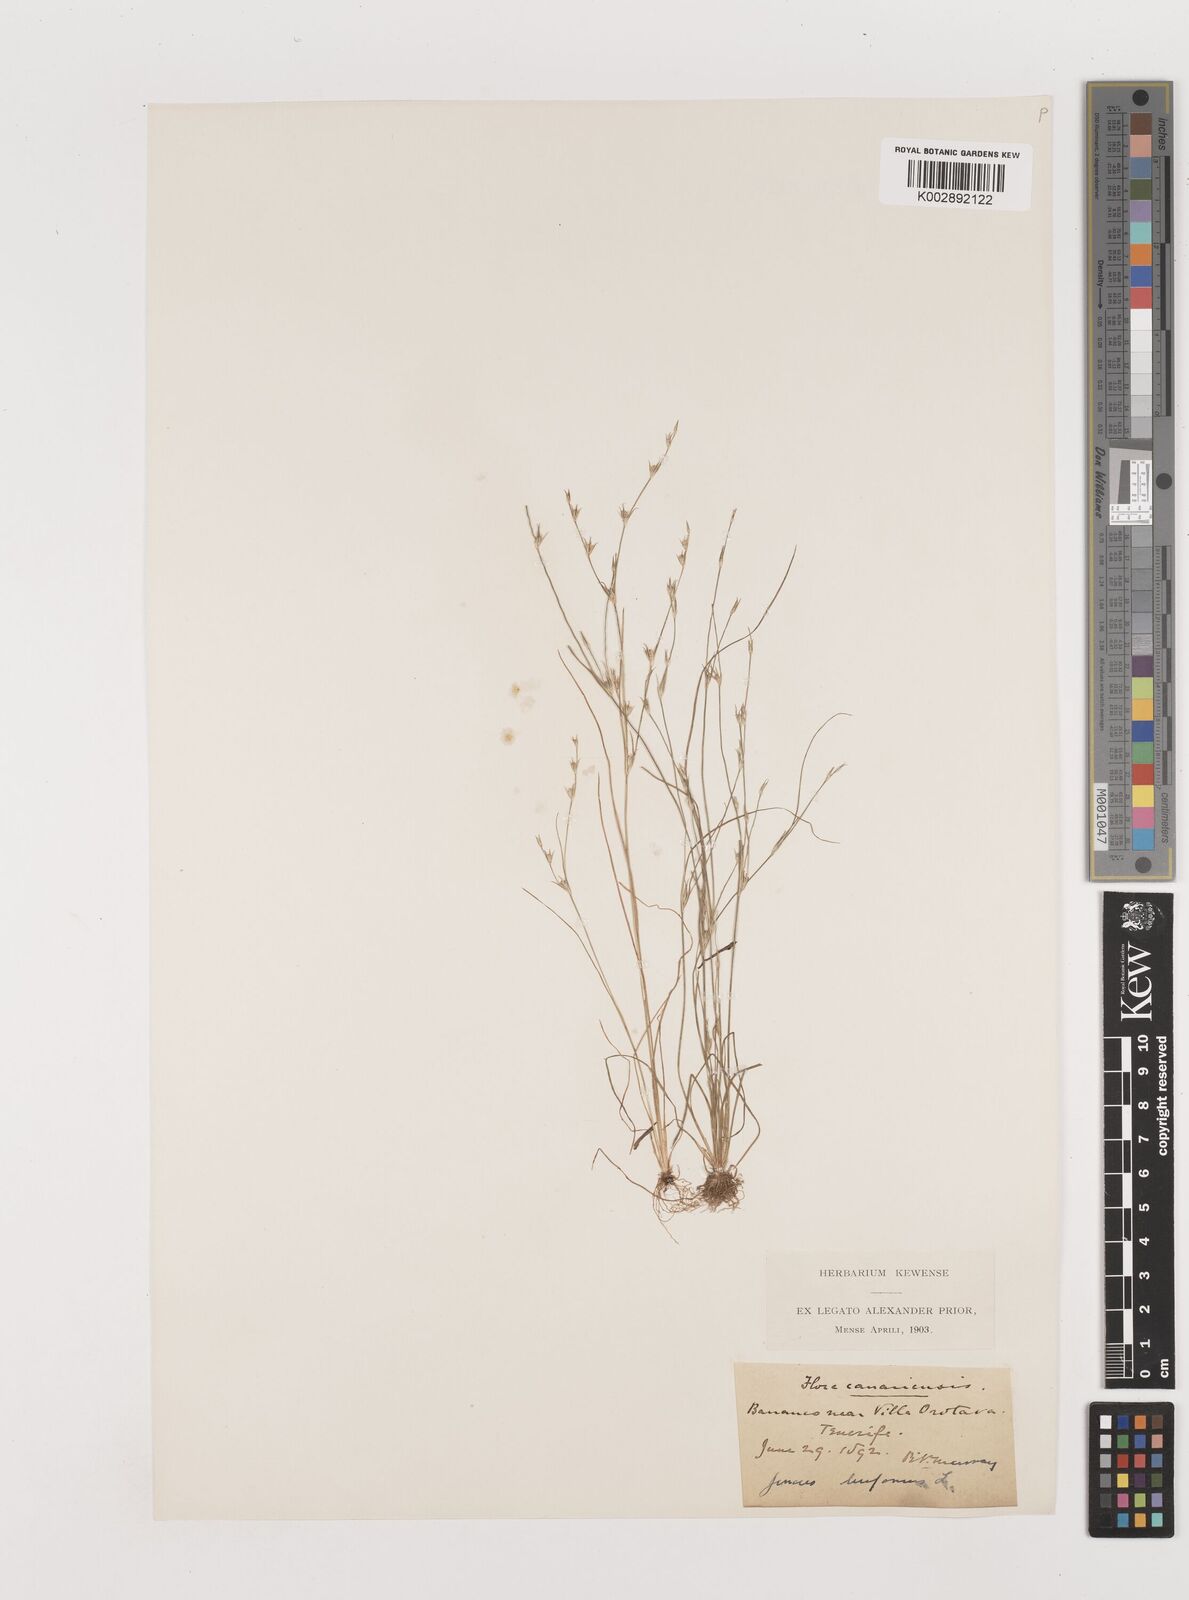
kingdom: Plantae
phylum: Tracheophyta
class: Liliopsida
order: Poales
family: Juncaceae
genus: Juncus
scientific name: Juncus bufonius
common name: Toad rush
